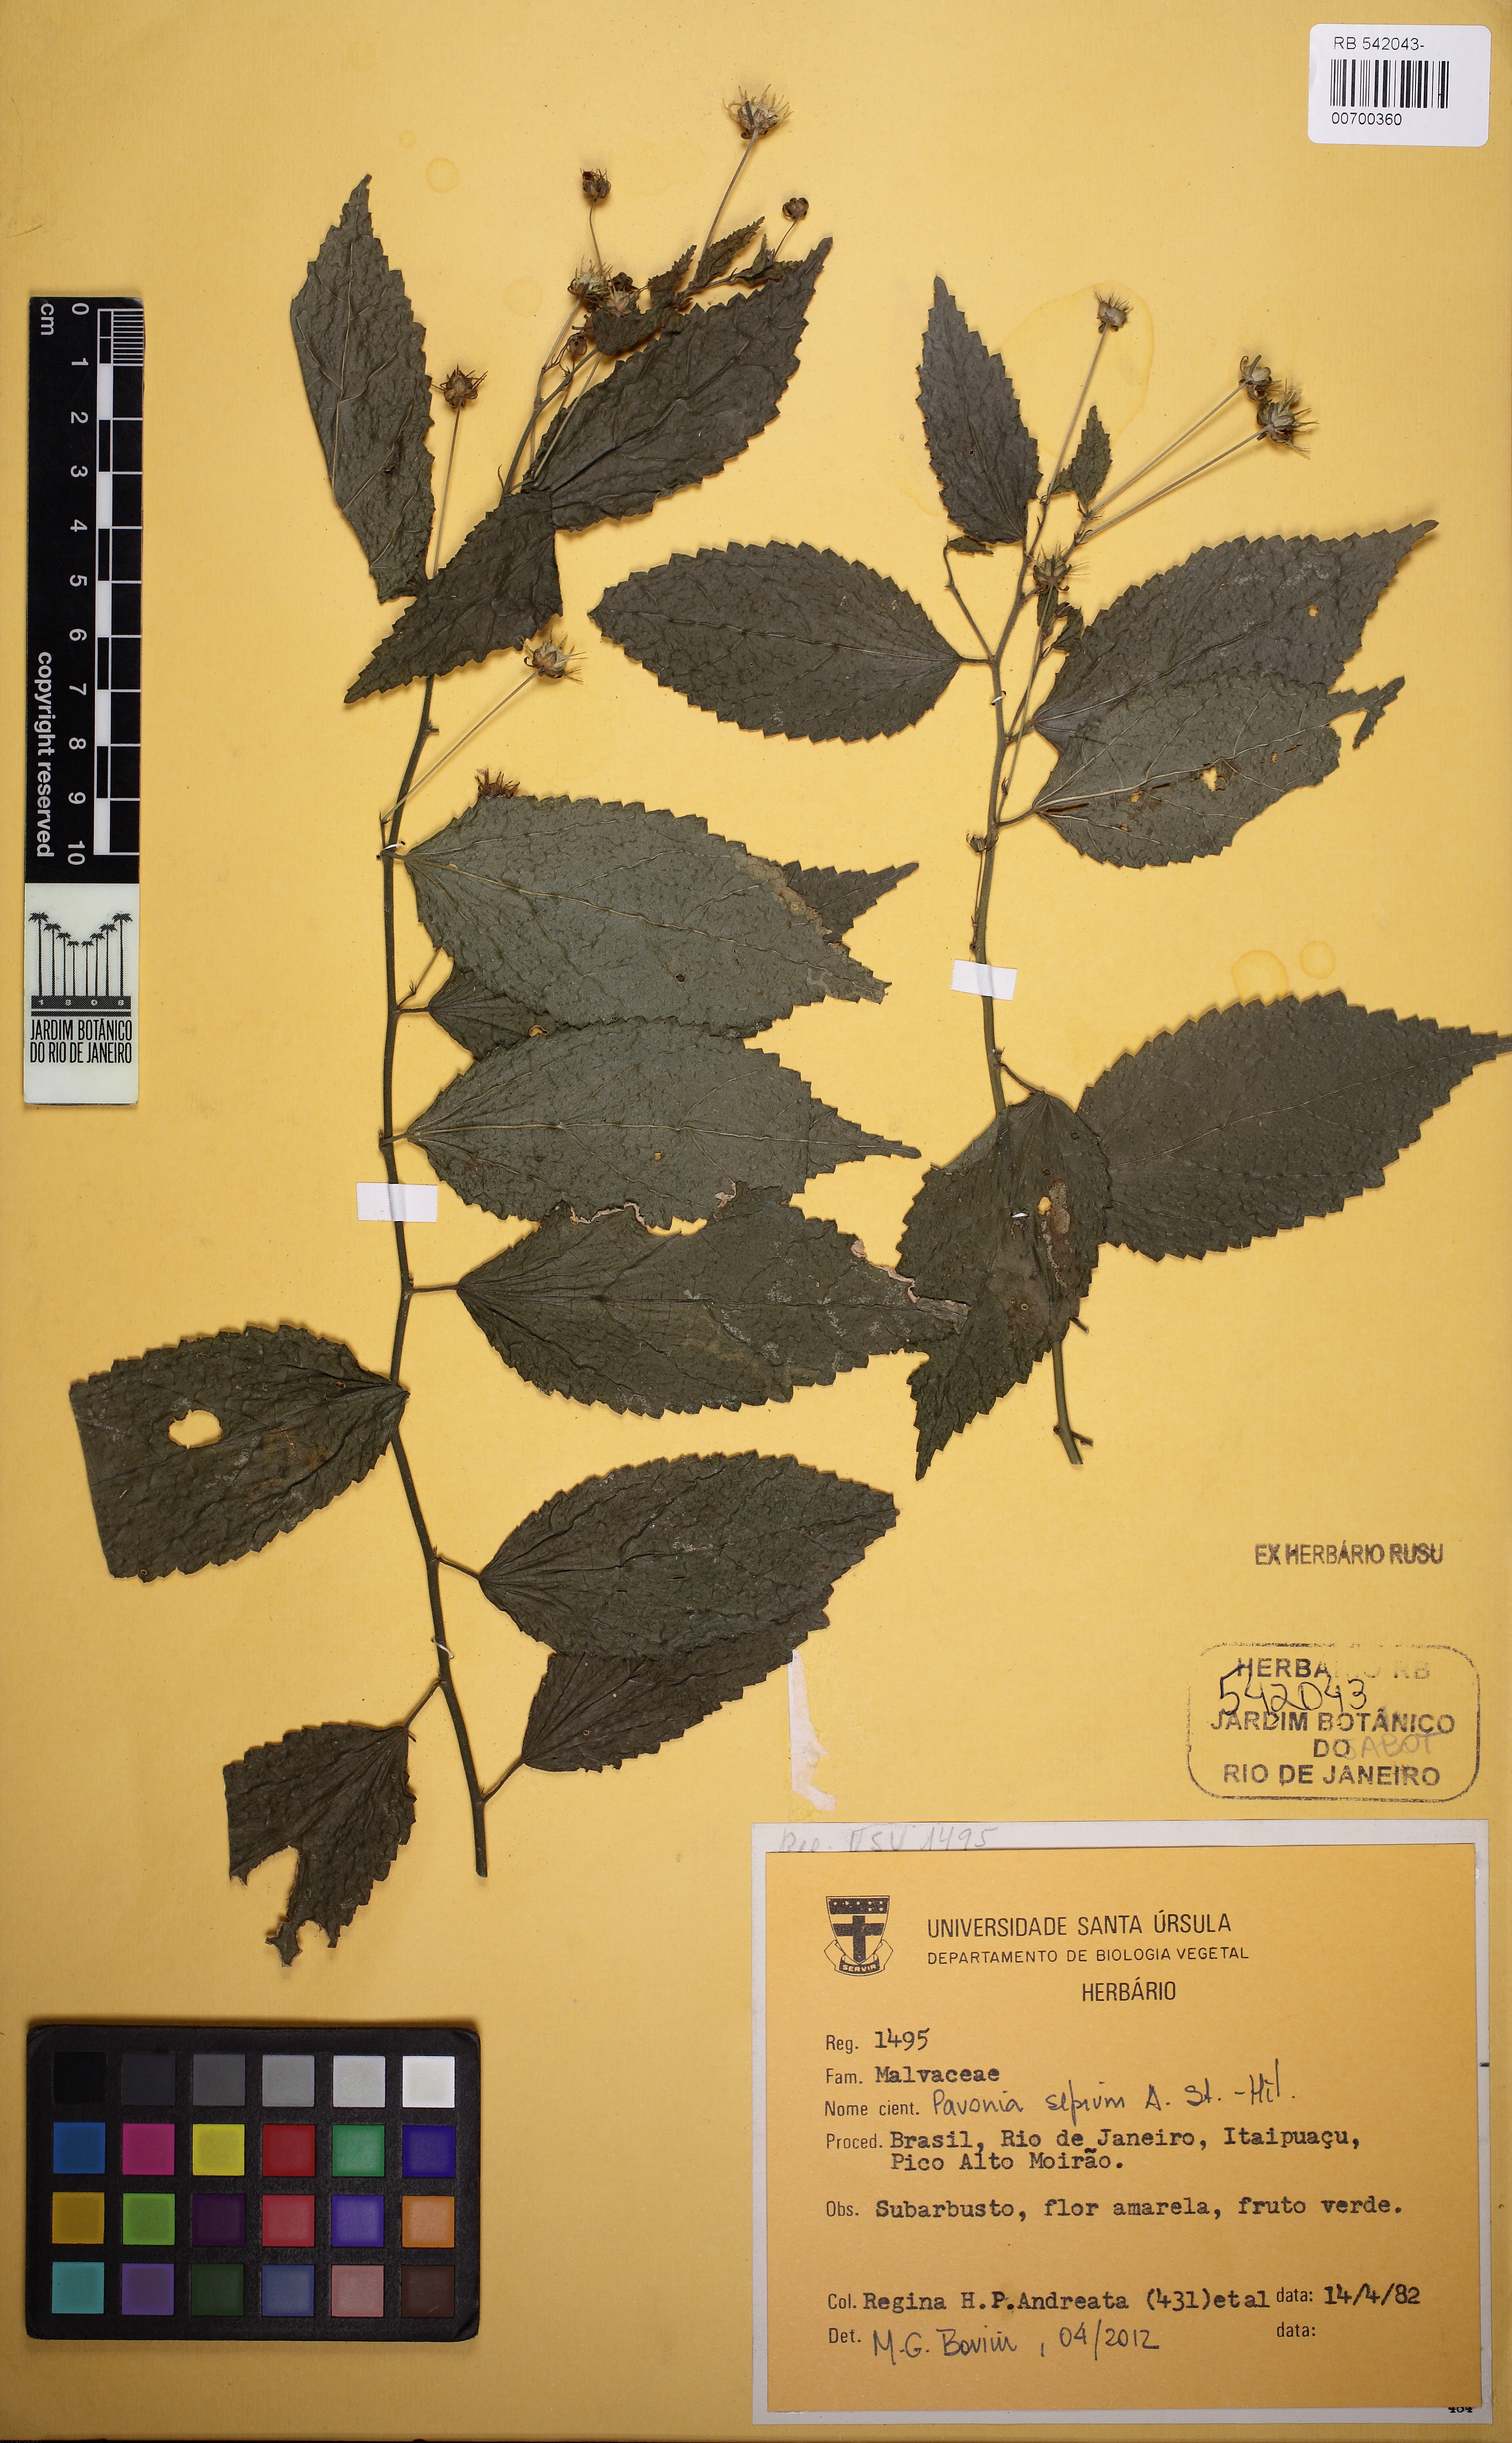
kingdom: Plantae
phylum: Tracheophyta
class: Magnoliopsida
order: Malvales
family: Malvaceae
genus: Pavonia
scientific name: Pavonia sepium
